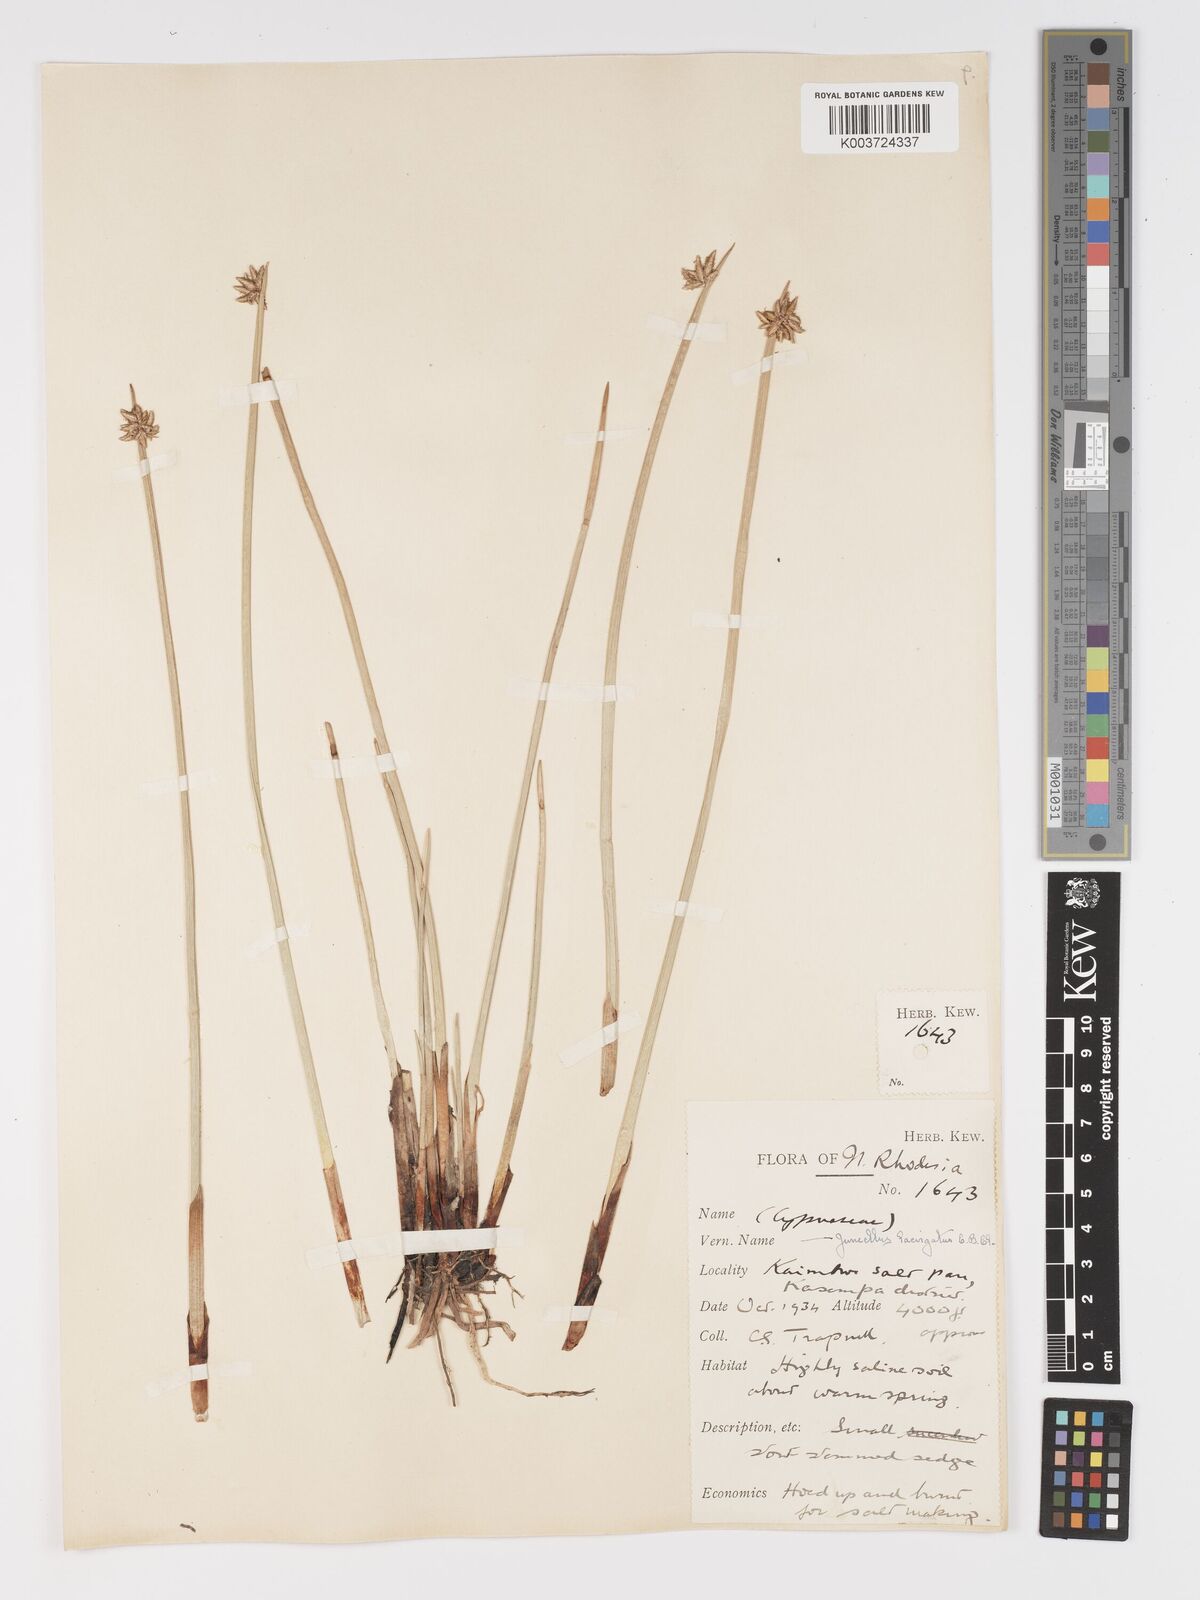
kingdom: Plantae
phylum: Tracheophyta
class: Liliopsida
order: Poales
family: Cyperaceae
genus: Cyperus
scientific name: Cyperus laevigatus
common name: Smooth flat sedge
